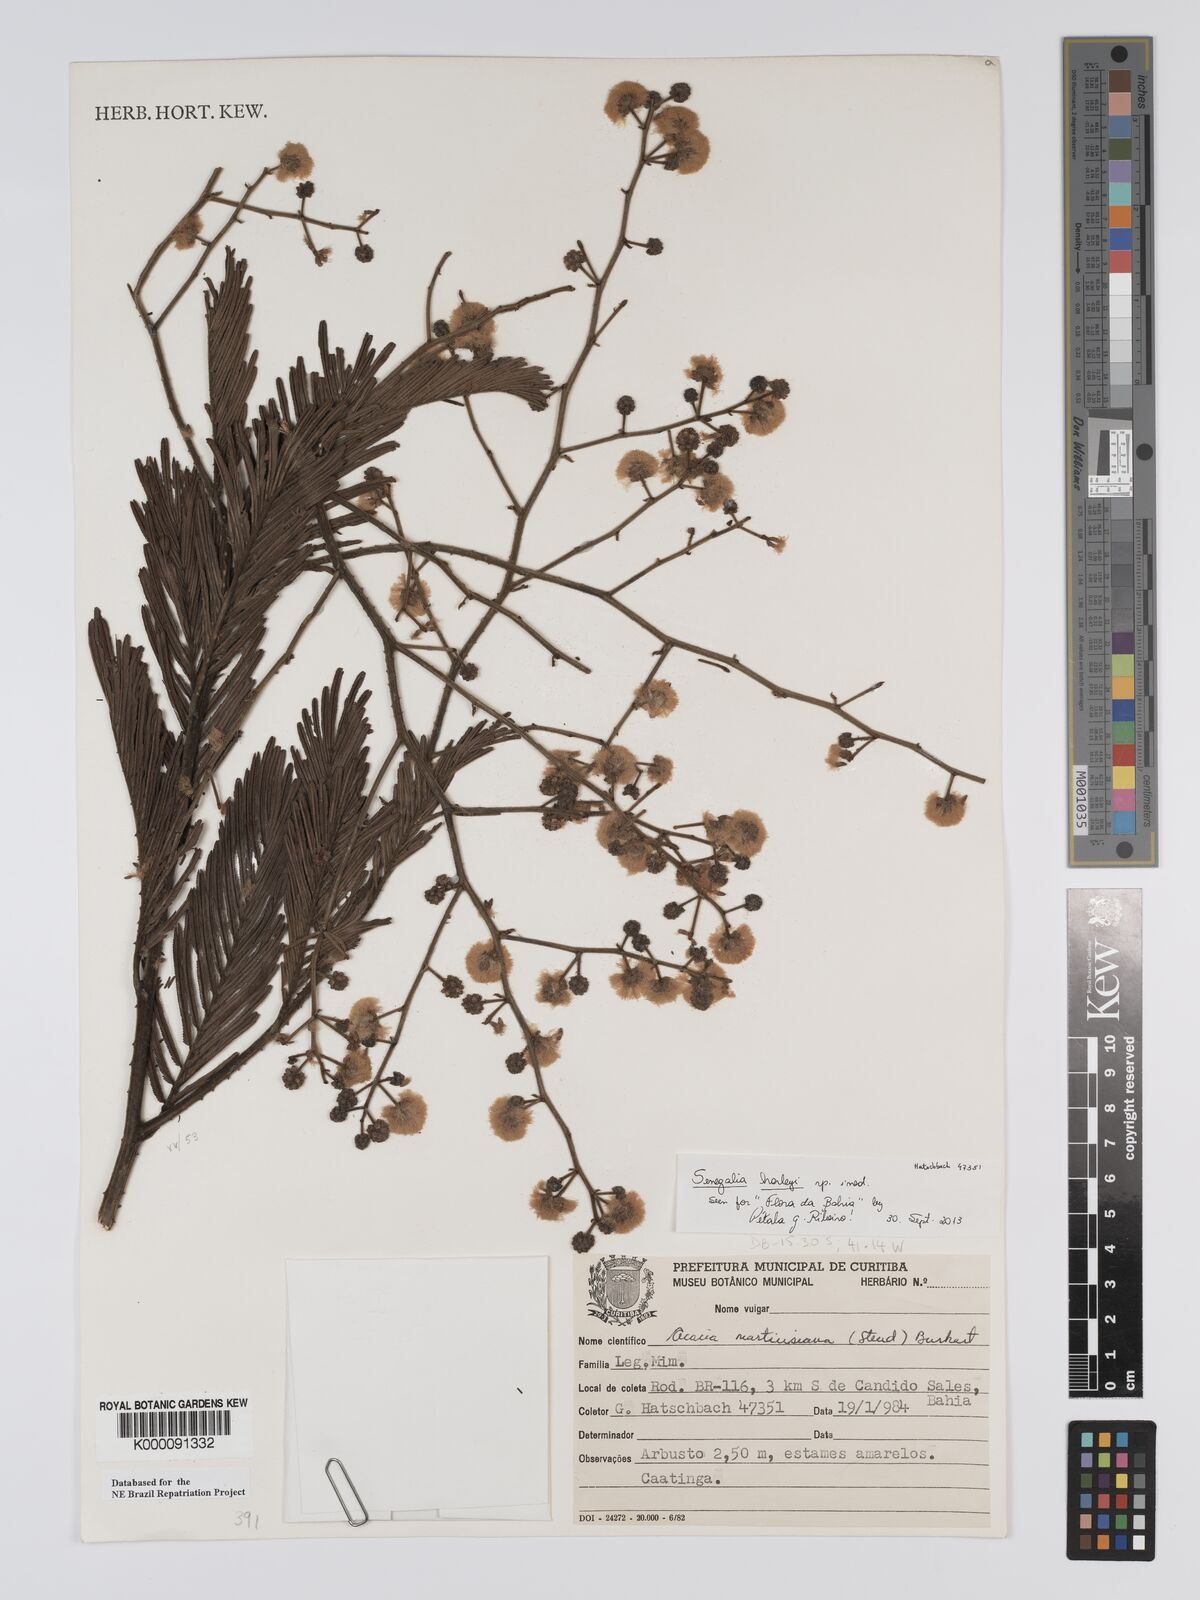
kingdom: Plantae
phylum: Tracheophyta
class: Magnoliopsida
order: Fabales
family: Fabaceae
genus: Senegalia
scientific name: Senegalia martiusiana
